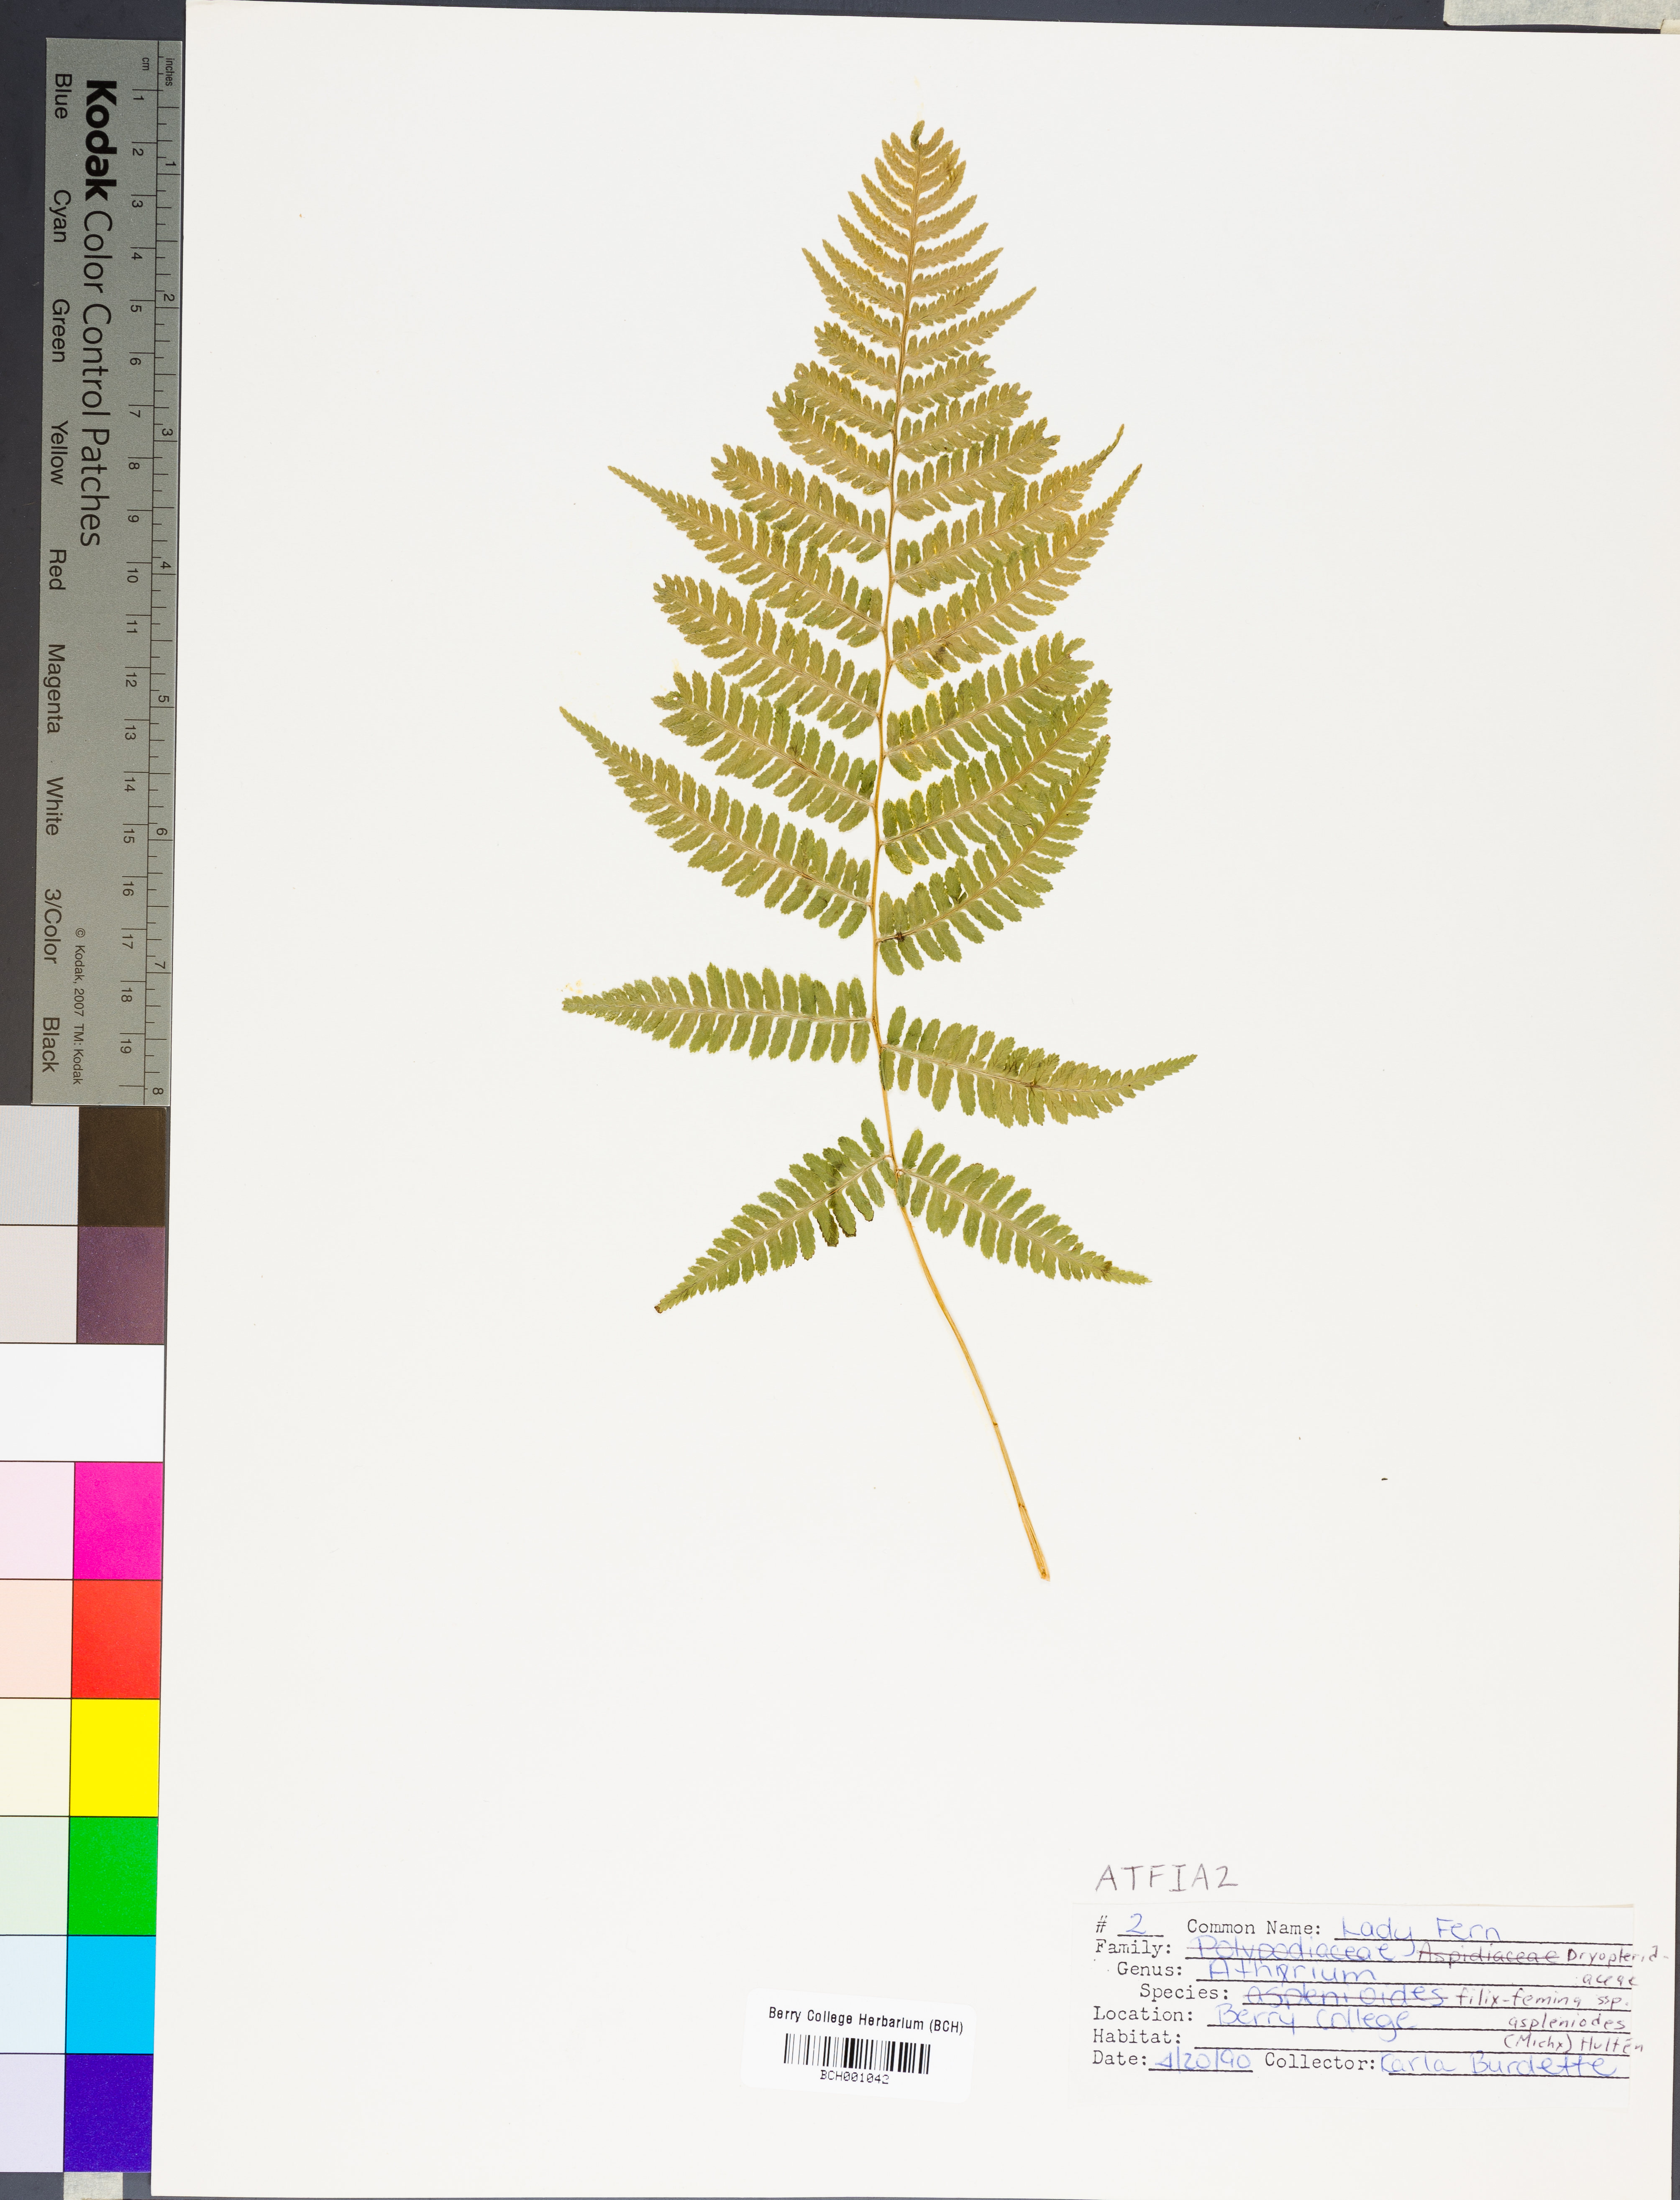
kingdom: Plantae
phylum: Tracheophyta
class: Polypodiopsida
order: Polypodiales
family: Athyriaceae
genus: Athyrium
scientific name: Athyrium asplenioides
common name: Southern lady fern
